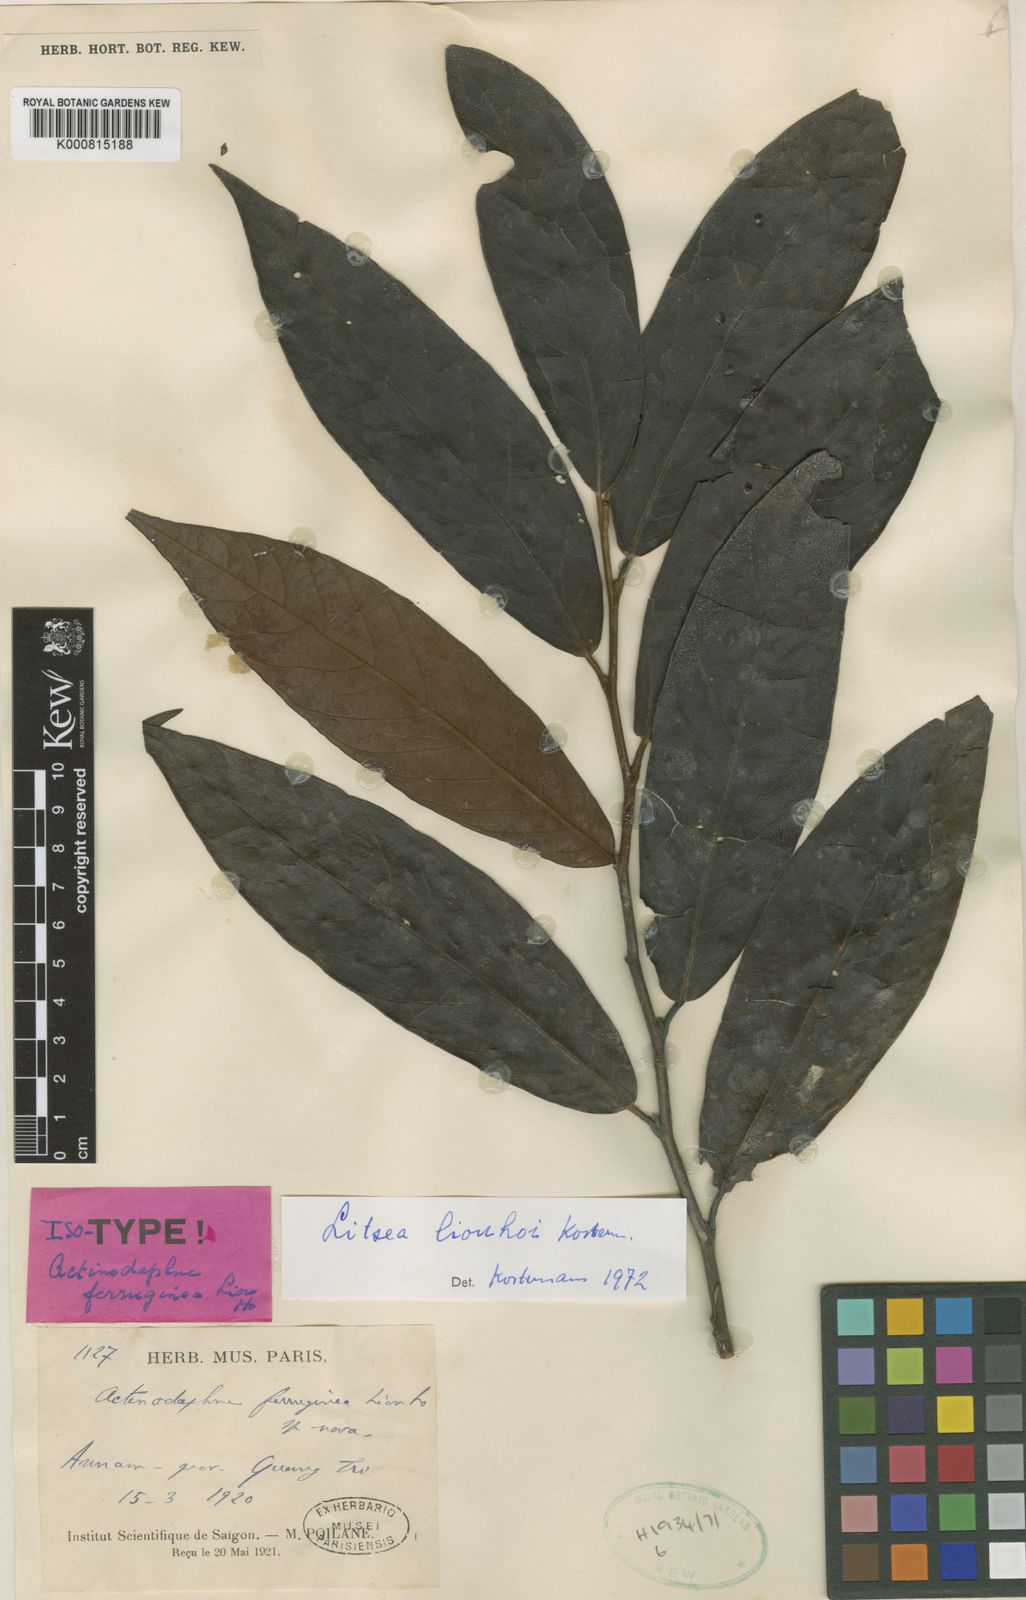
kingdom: Plantae
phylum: Tracheophyta
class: Magnoliopsida
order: Laurales
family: Lauraceae
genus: Litsea
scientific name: Litsea
